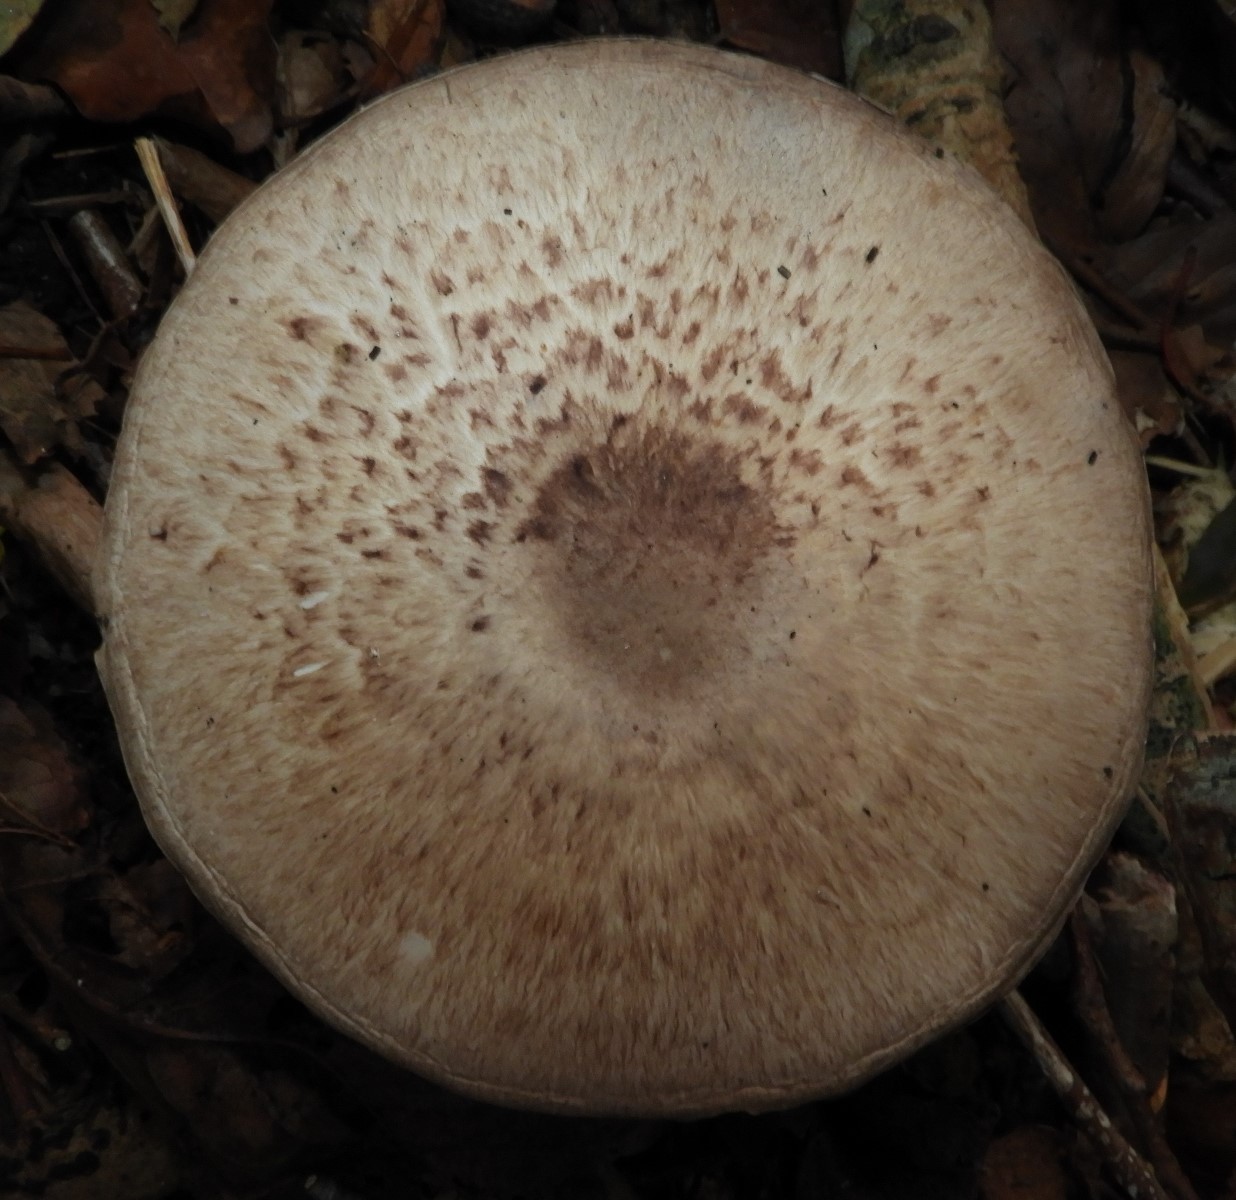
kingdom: Fungi
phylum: Basidiomycota
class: Agaricomycetes
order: Agaricales
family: Agaricaceae
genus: Agaricus
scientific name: Agaricus impudicus
